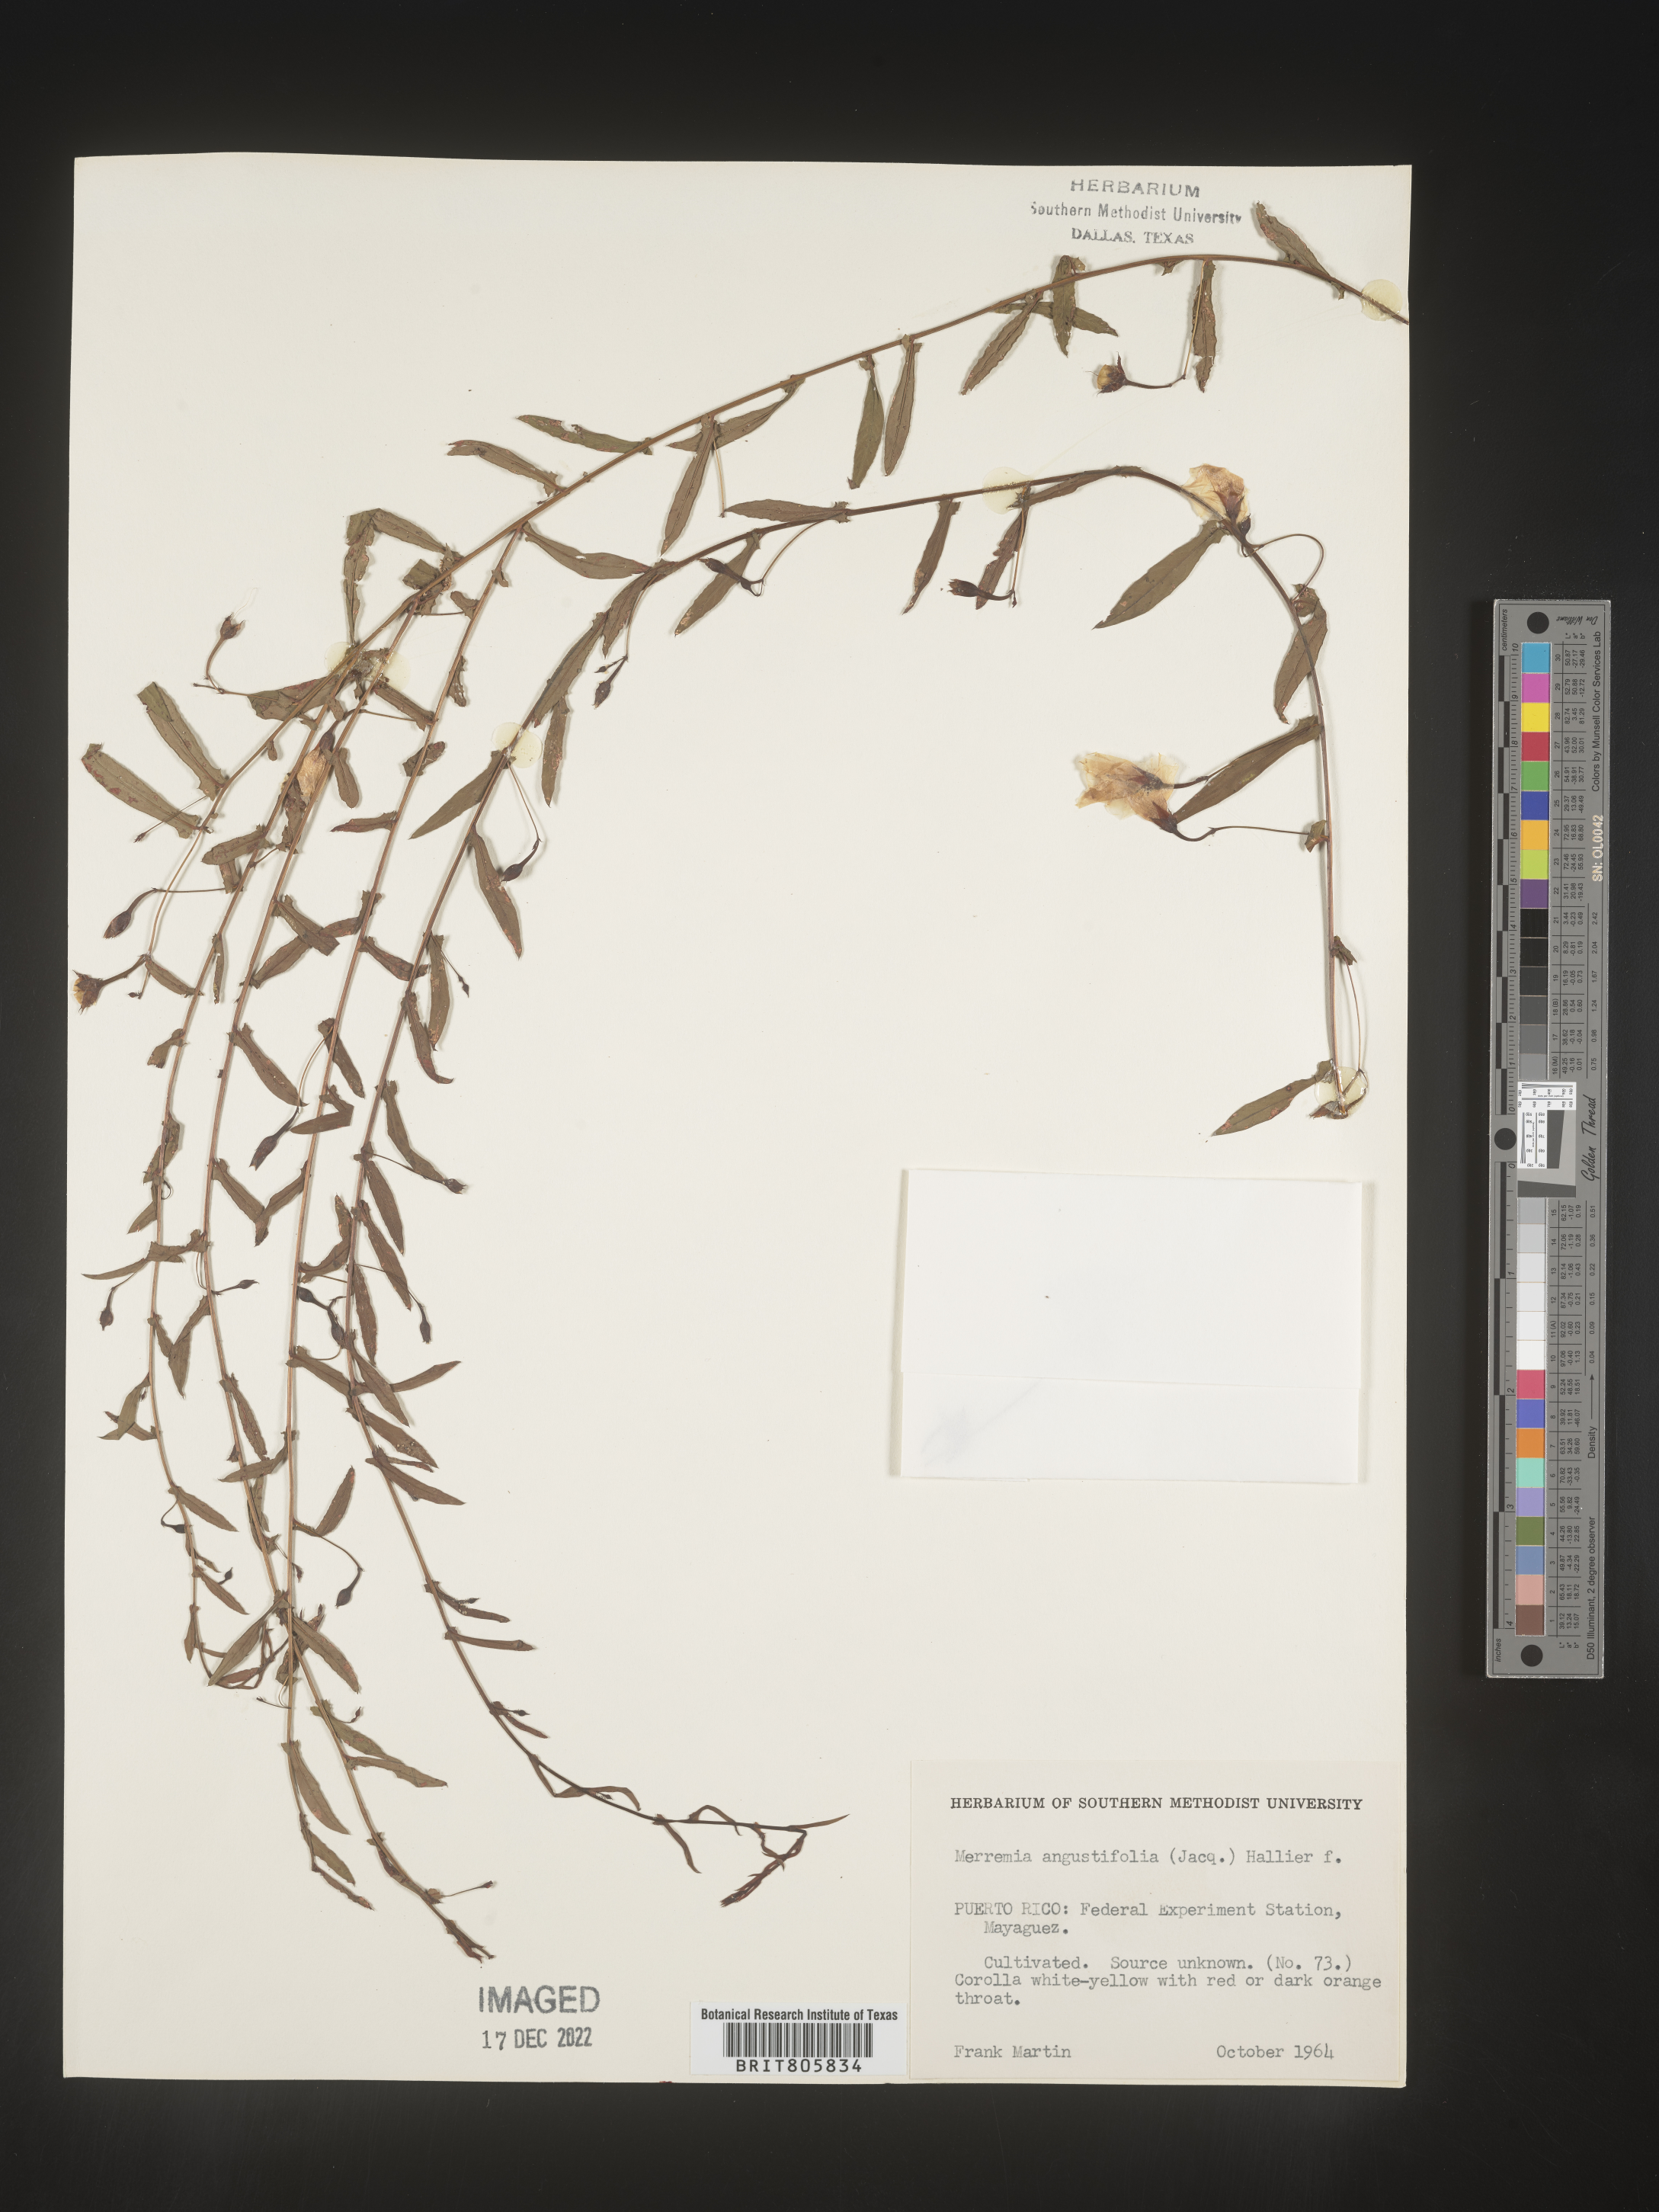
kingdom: Plantae
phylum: Tracheophyta
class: Magnoliopsida
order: Solanales
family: Convolvulaceae
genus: Merremia
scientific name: Merremia
